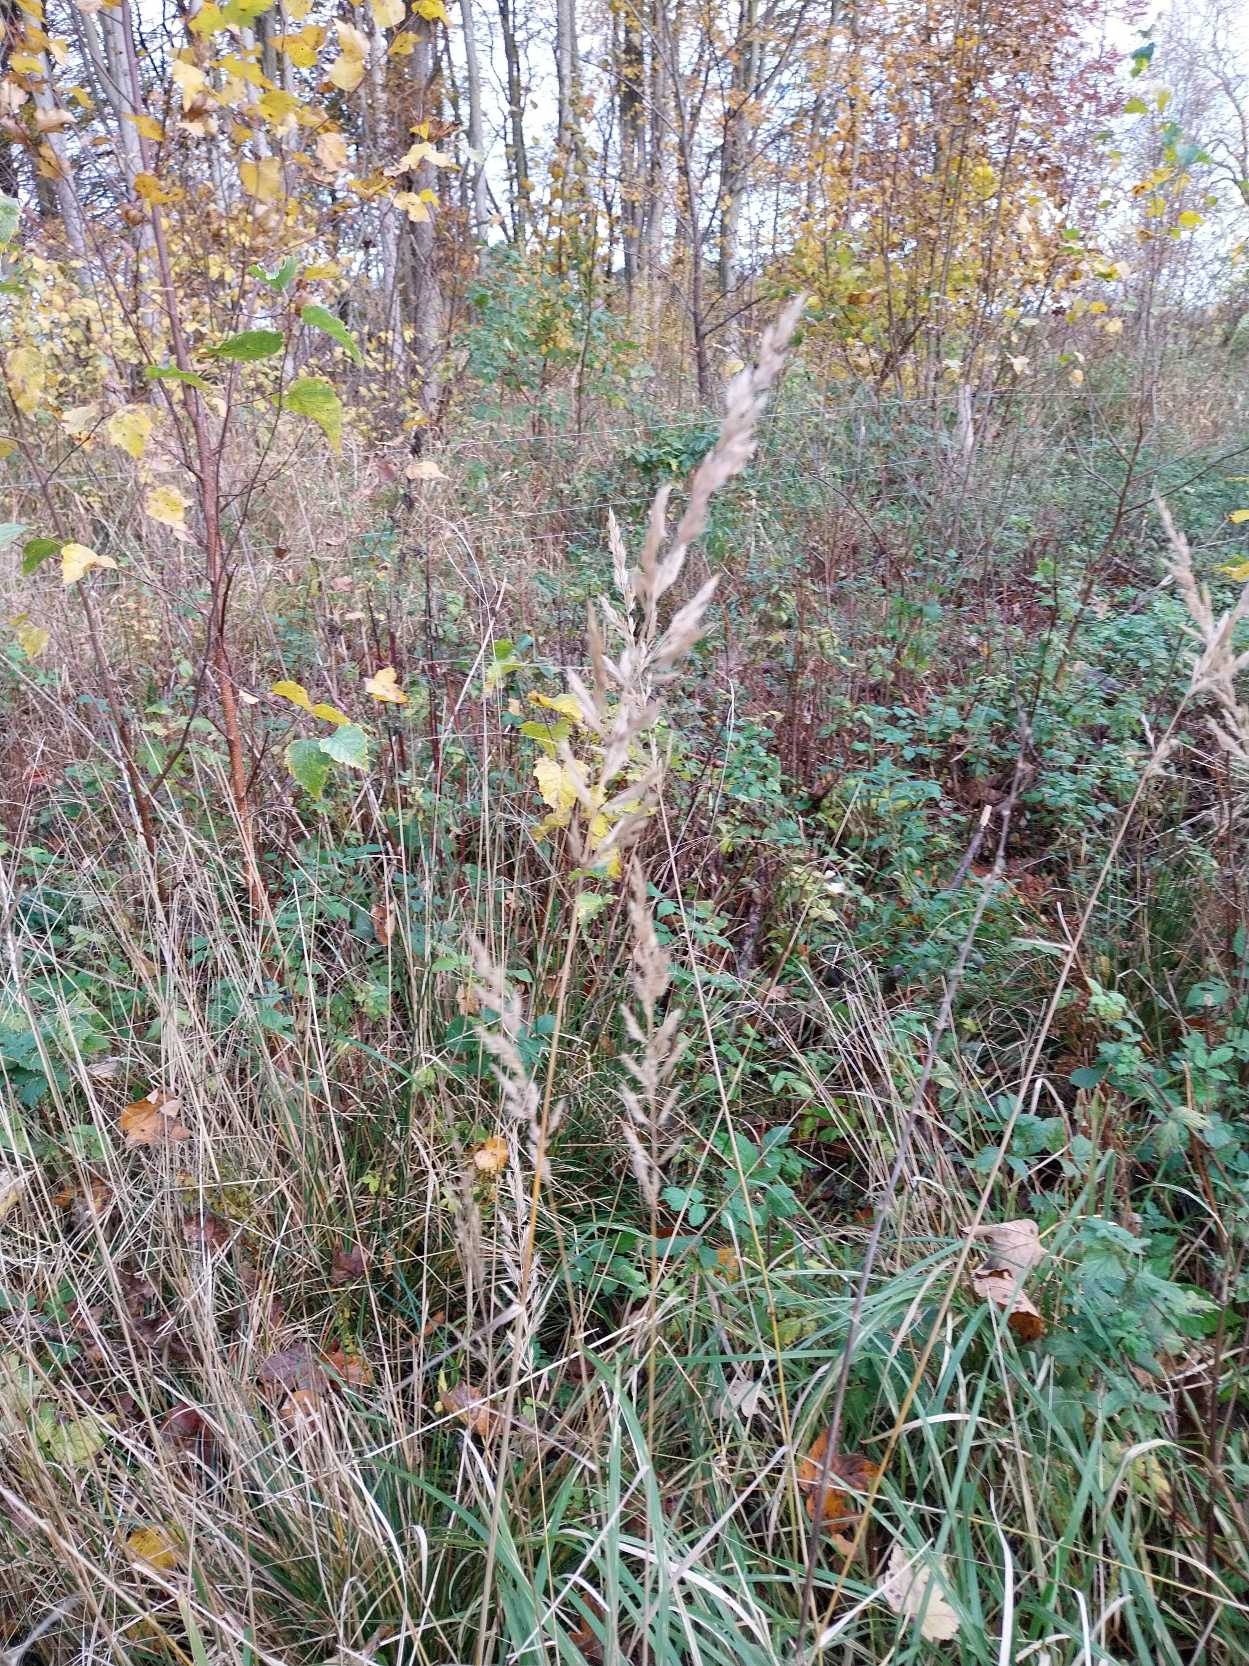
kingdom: Plantae
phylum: Tracheophyta
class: Liliopsida
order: Poales
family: Poaceae
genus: Calamagrostis
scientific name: Calamagrostis epigejos
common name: Bjerg-rørhvene
